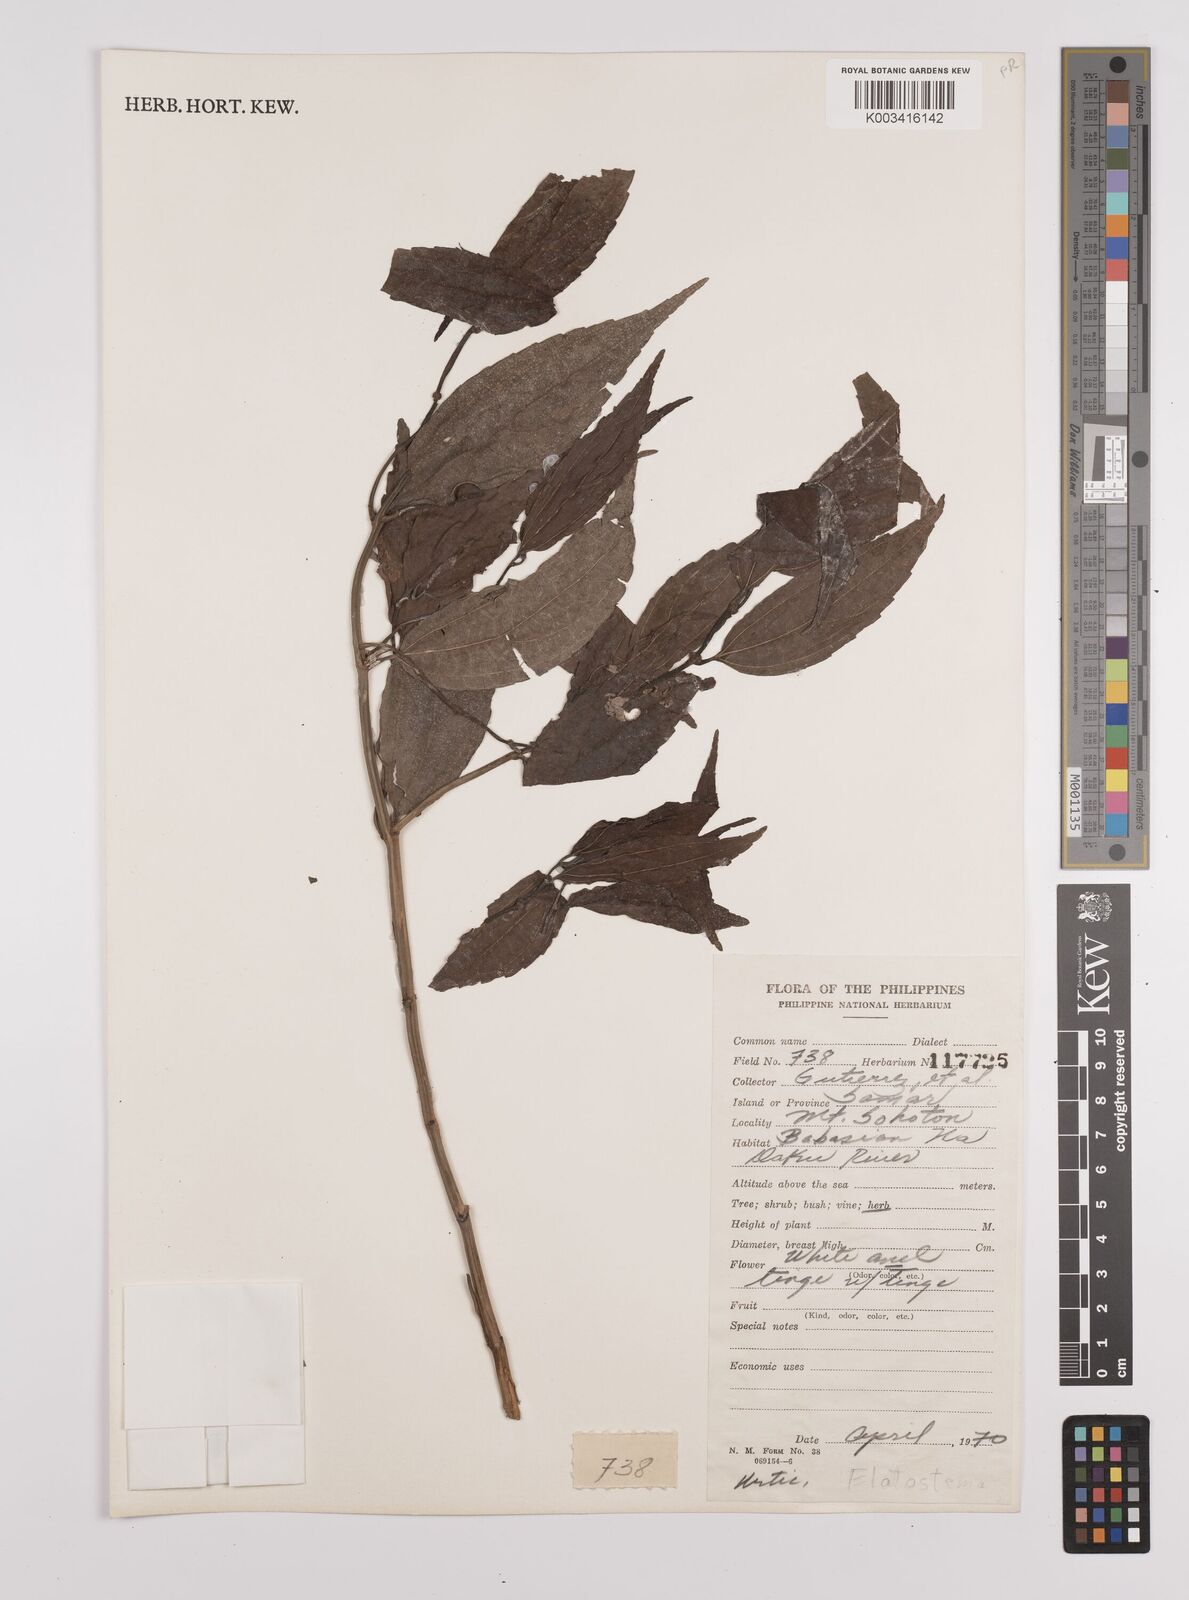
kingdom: Plantae
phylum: Tracheophyta
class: Magnoliopsida
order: Rosales
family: Urticaceae
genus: Elatostema
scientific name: Elatostema
